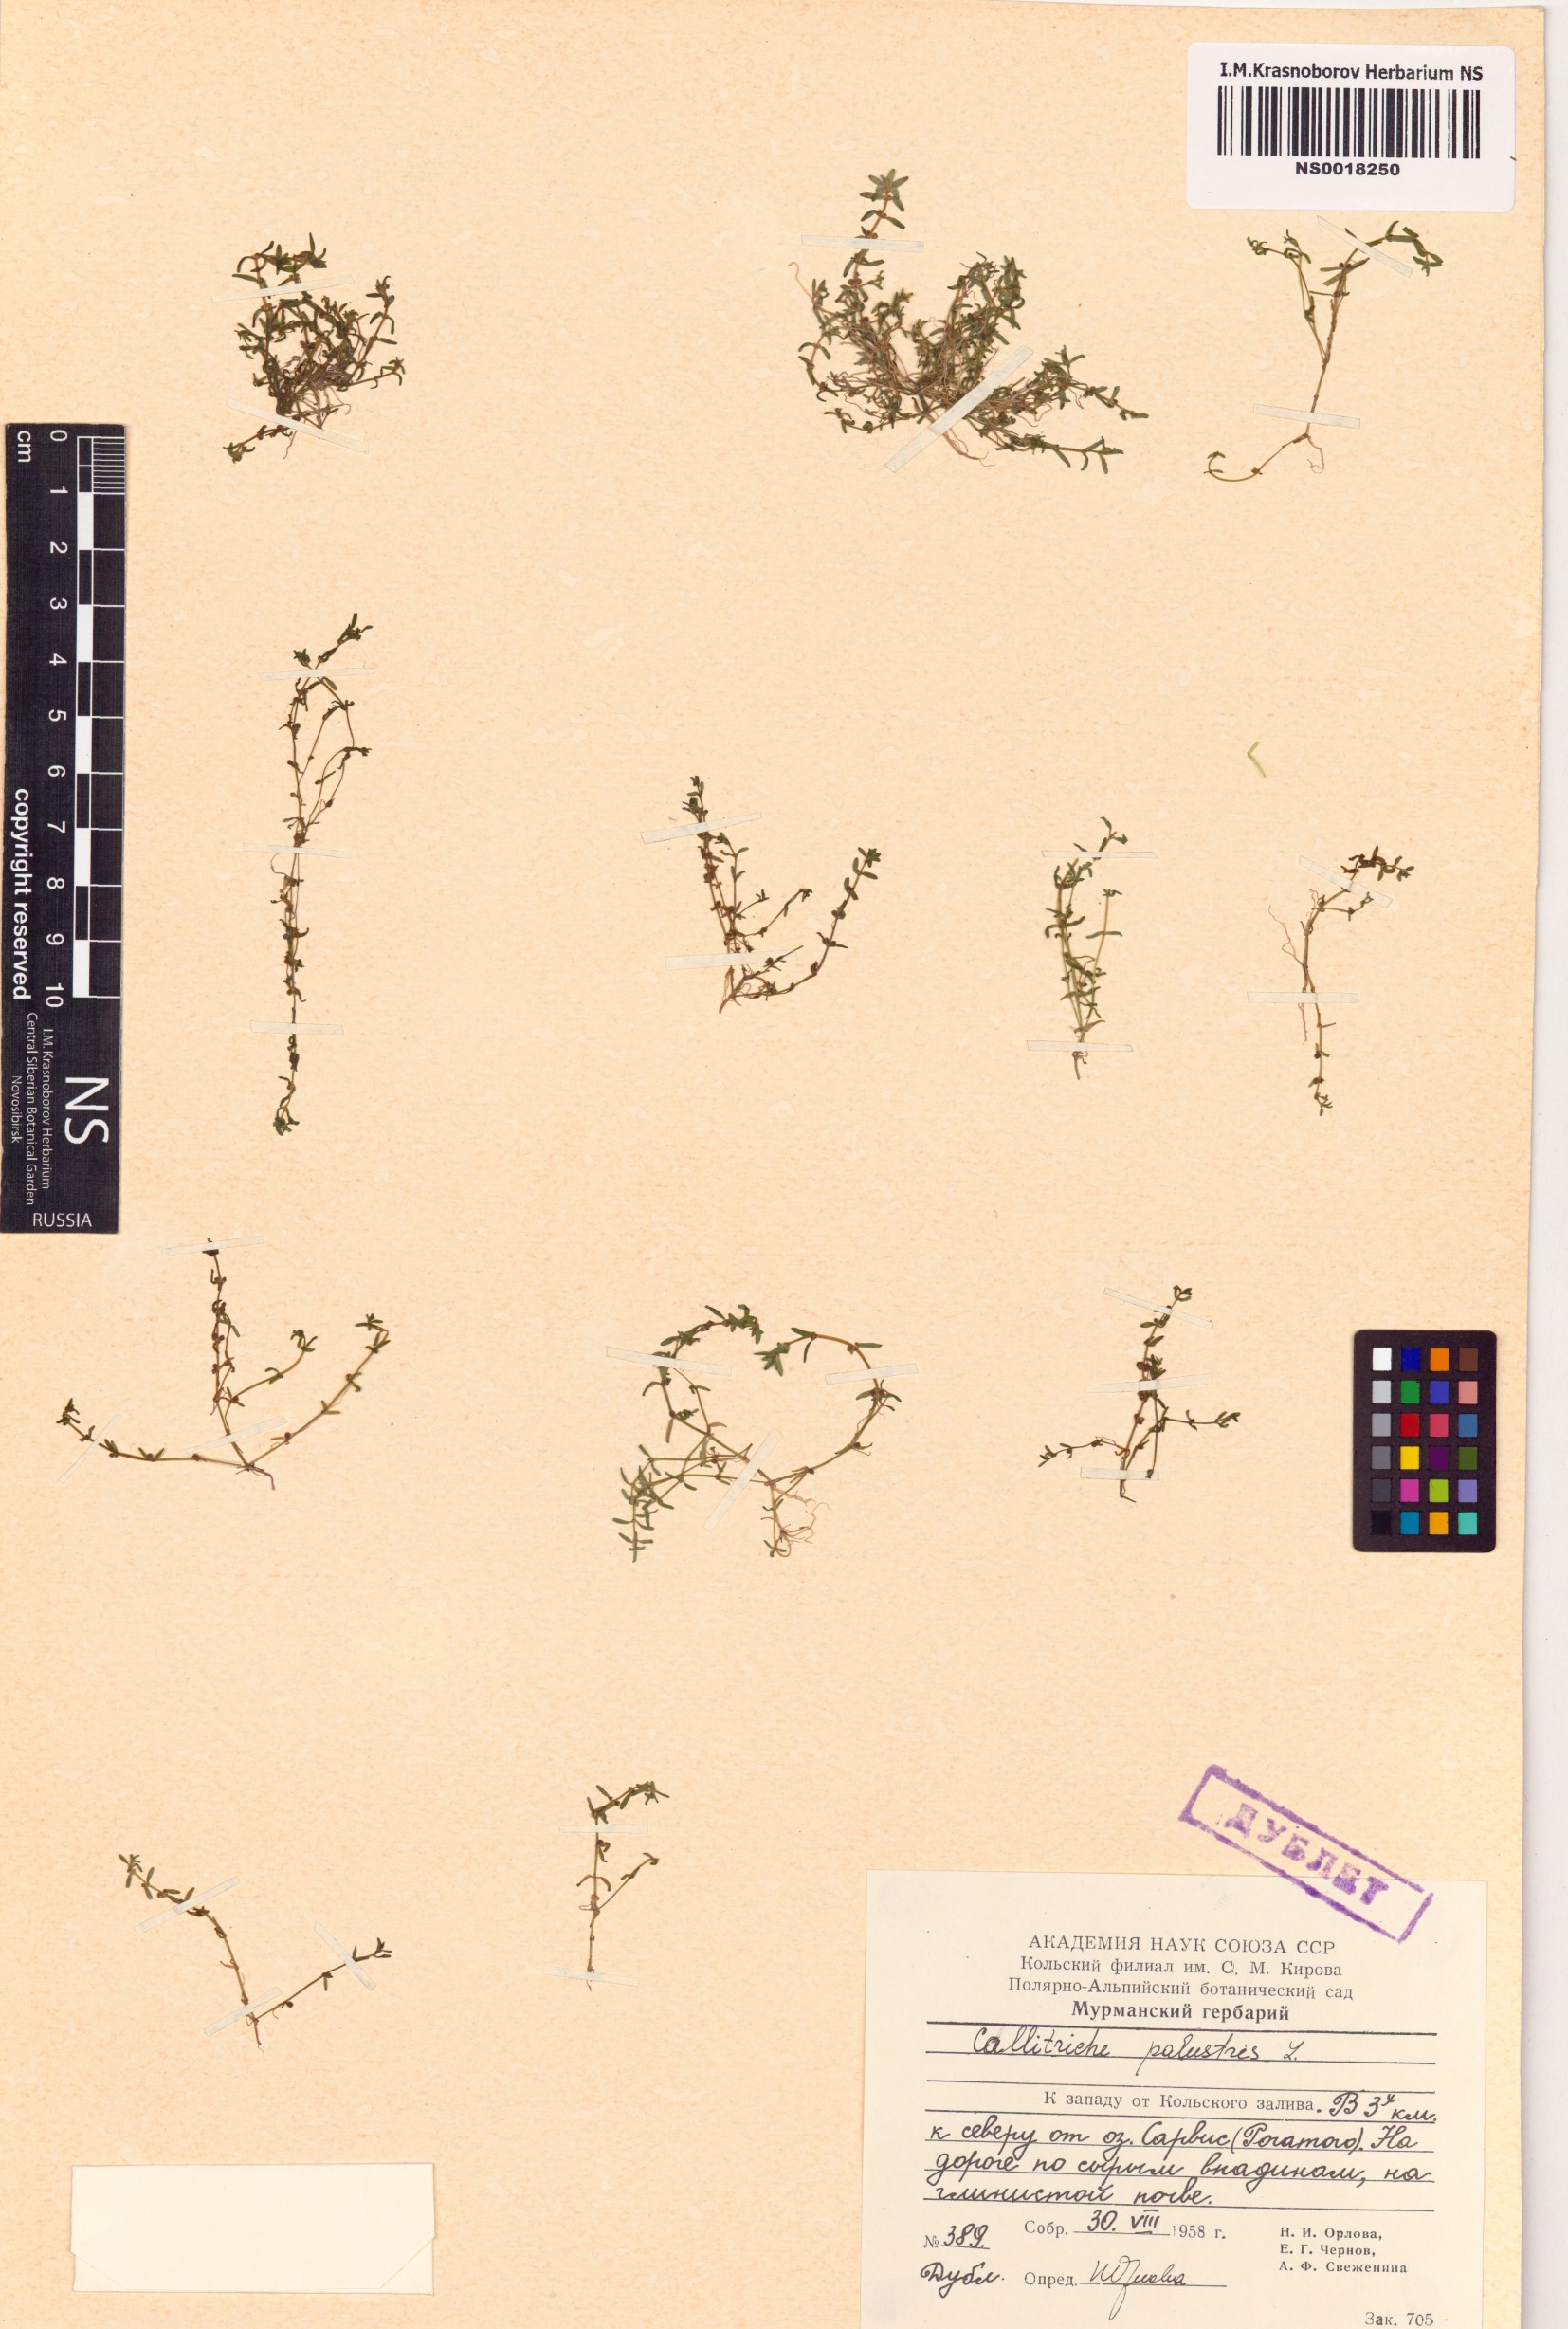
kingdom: Plantae
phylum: Tracheophyta
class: Magnoliopsida
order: Lamiales
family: Plantaginaceae
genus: Callitriche
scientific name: Callitriche palustris
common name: Spring water-starwort
